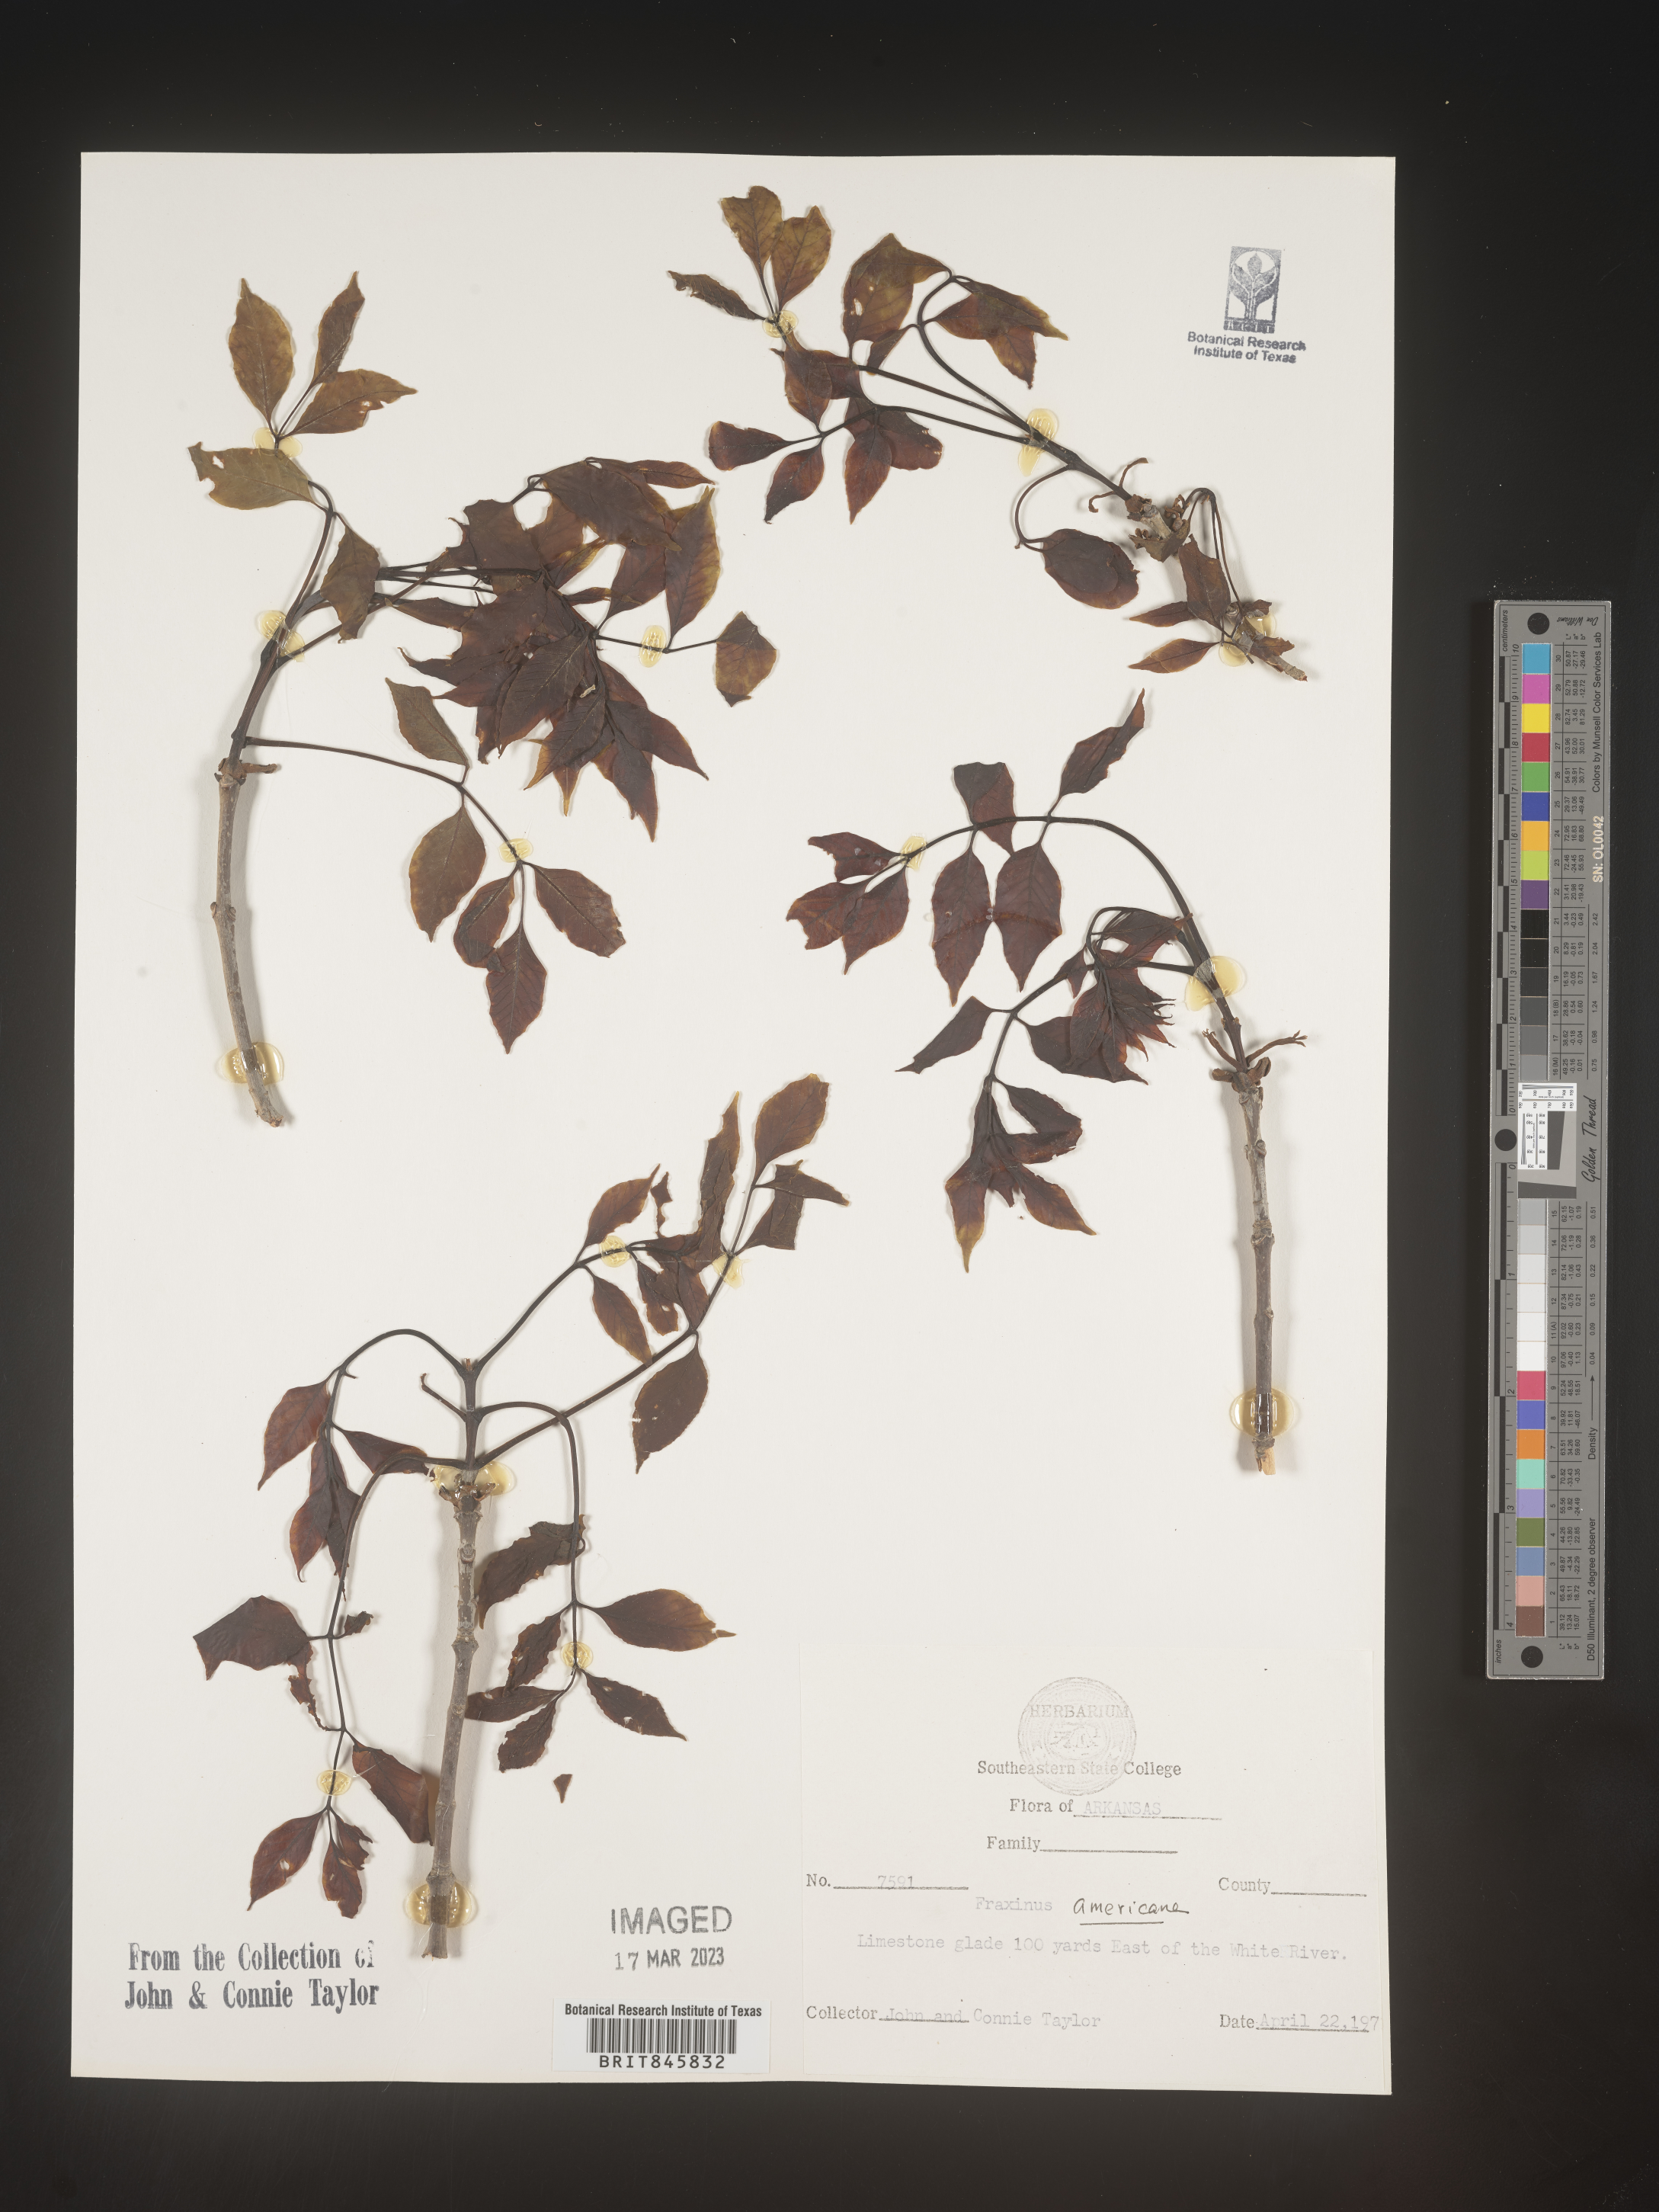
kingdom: Plantae
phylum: Tracheophyta
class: Magnoliopsida
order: Lamiales
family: Oleaceae
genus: Fraxinus
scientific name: Fraxinus americana
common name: White ash
